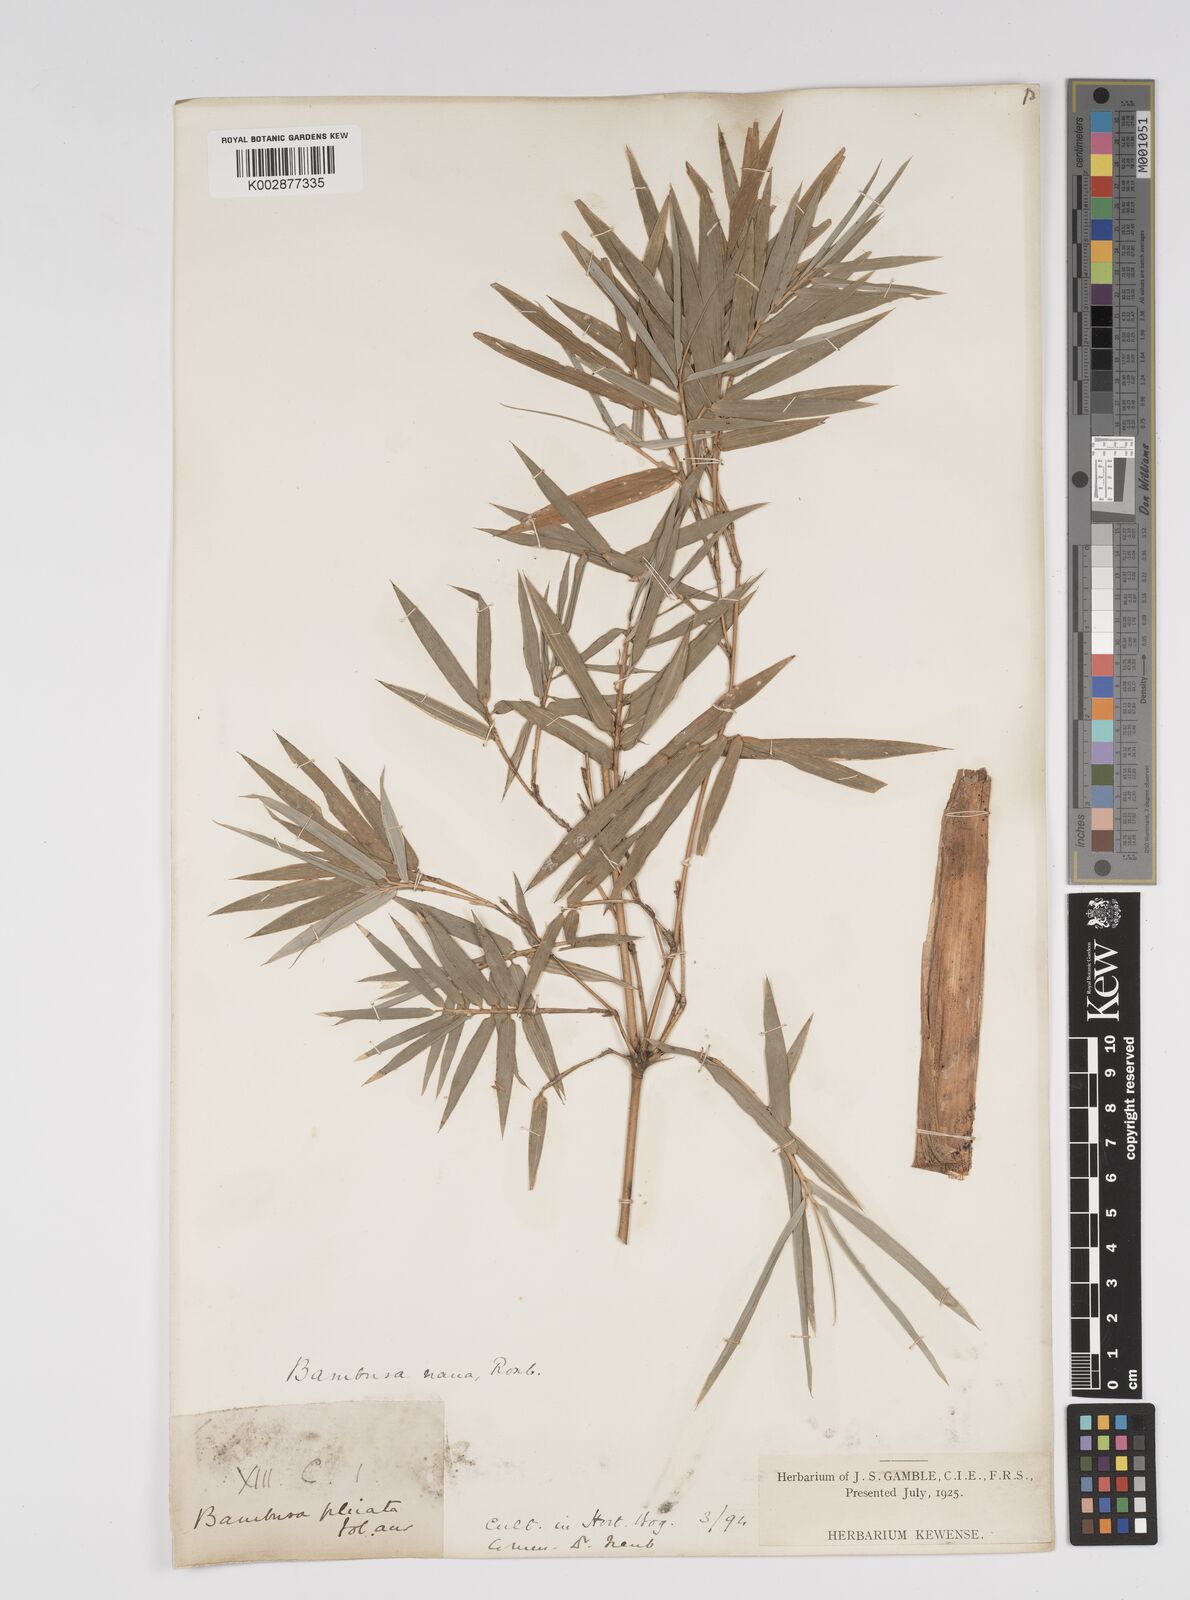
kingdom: Plantae
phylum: Tracheophyta
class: Liliopsida
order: Poales
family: Poaceae
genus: Bambusa
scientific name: Bambusa multiplex
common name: Hedge bamboo
